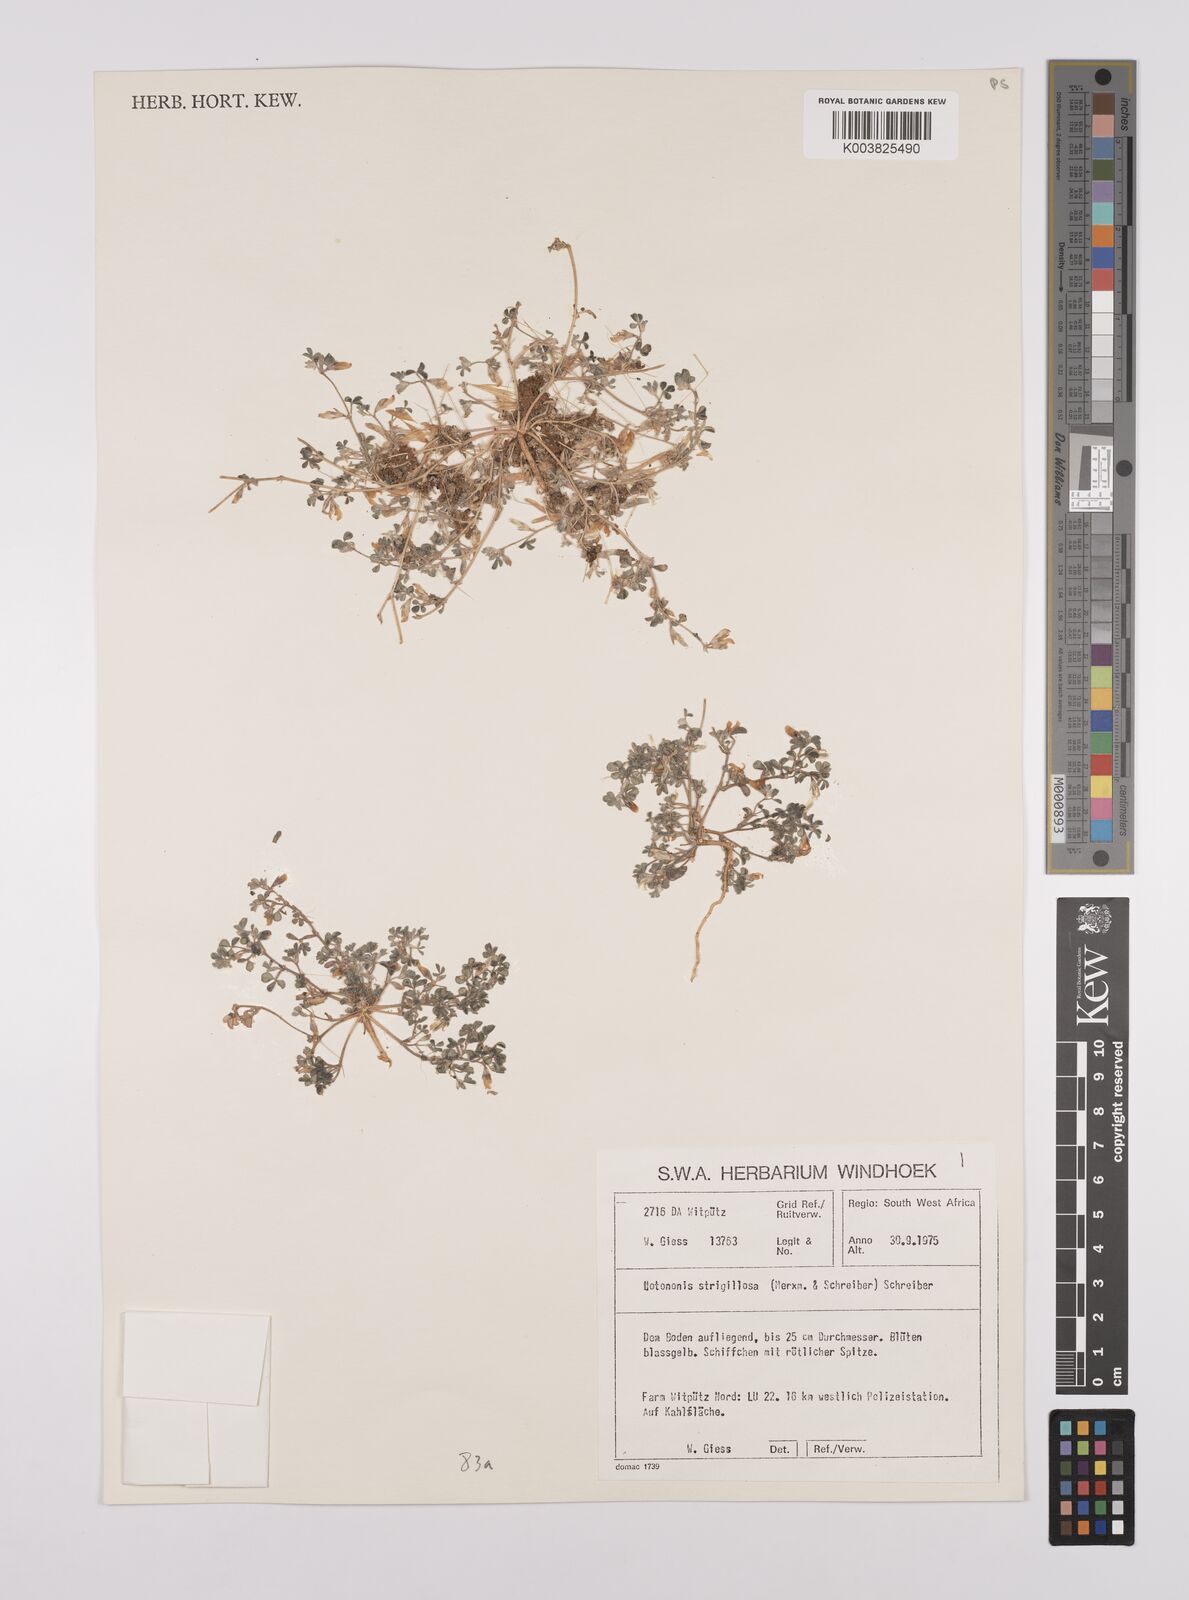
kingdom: Plantae
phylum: Tracheophyta
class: Magnoliopsida
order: Fabales
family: Fabaceae
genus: Lotononis
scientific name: Lotononis strigillosa
